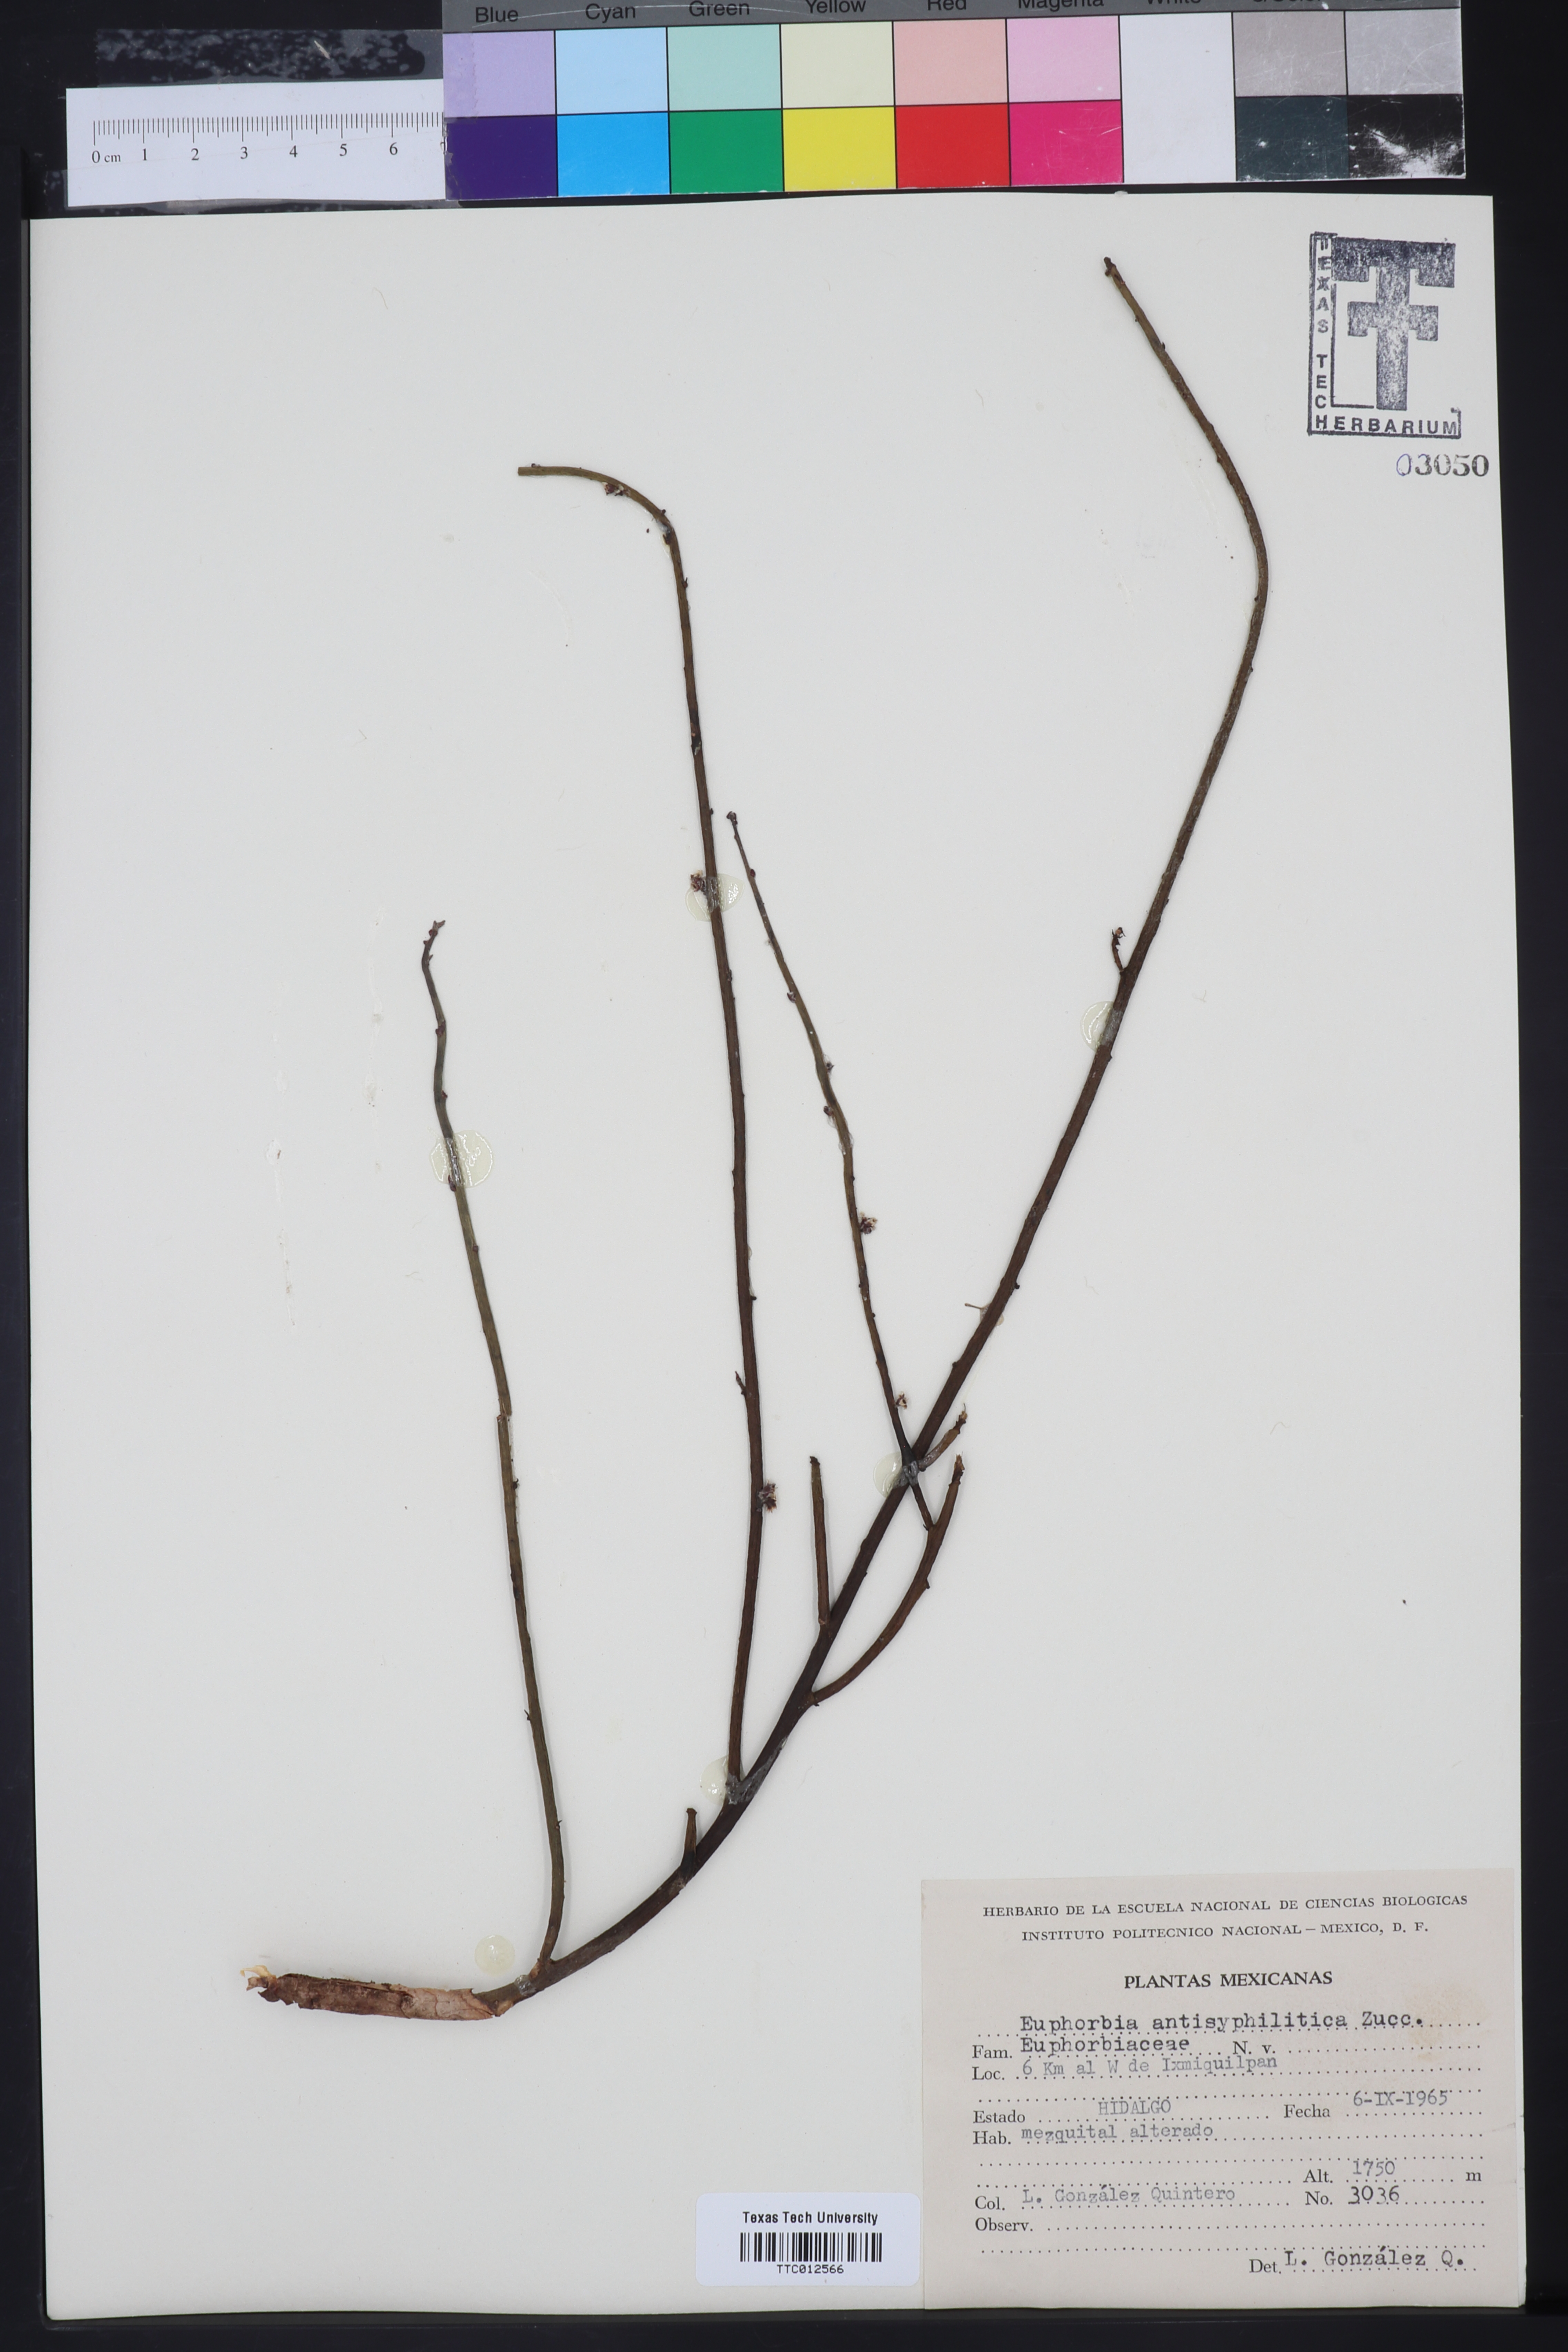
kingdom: Plantae
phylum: Tracheophyta
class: Magnoliopsida
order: Malpighiales
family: Euphorbiaceae
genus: Euphorbia
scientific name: Euphorbia antisyphilitica
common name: Candelilla
